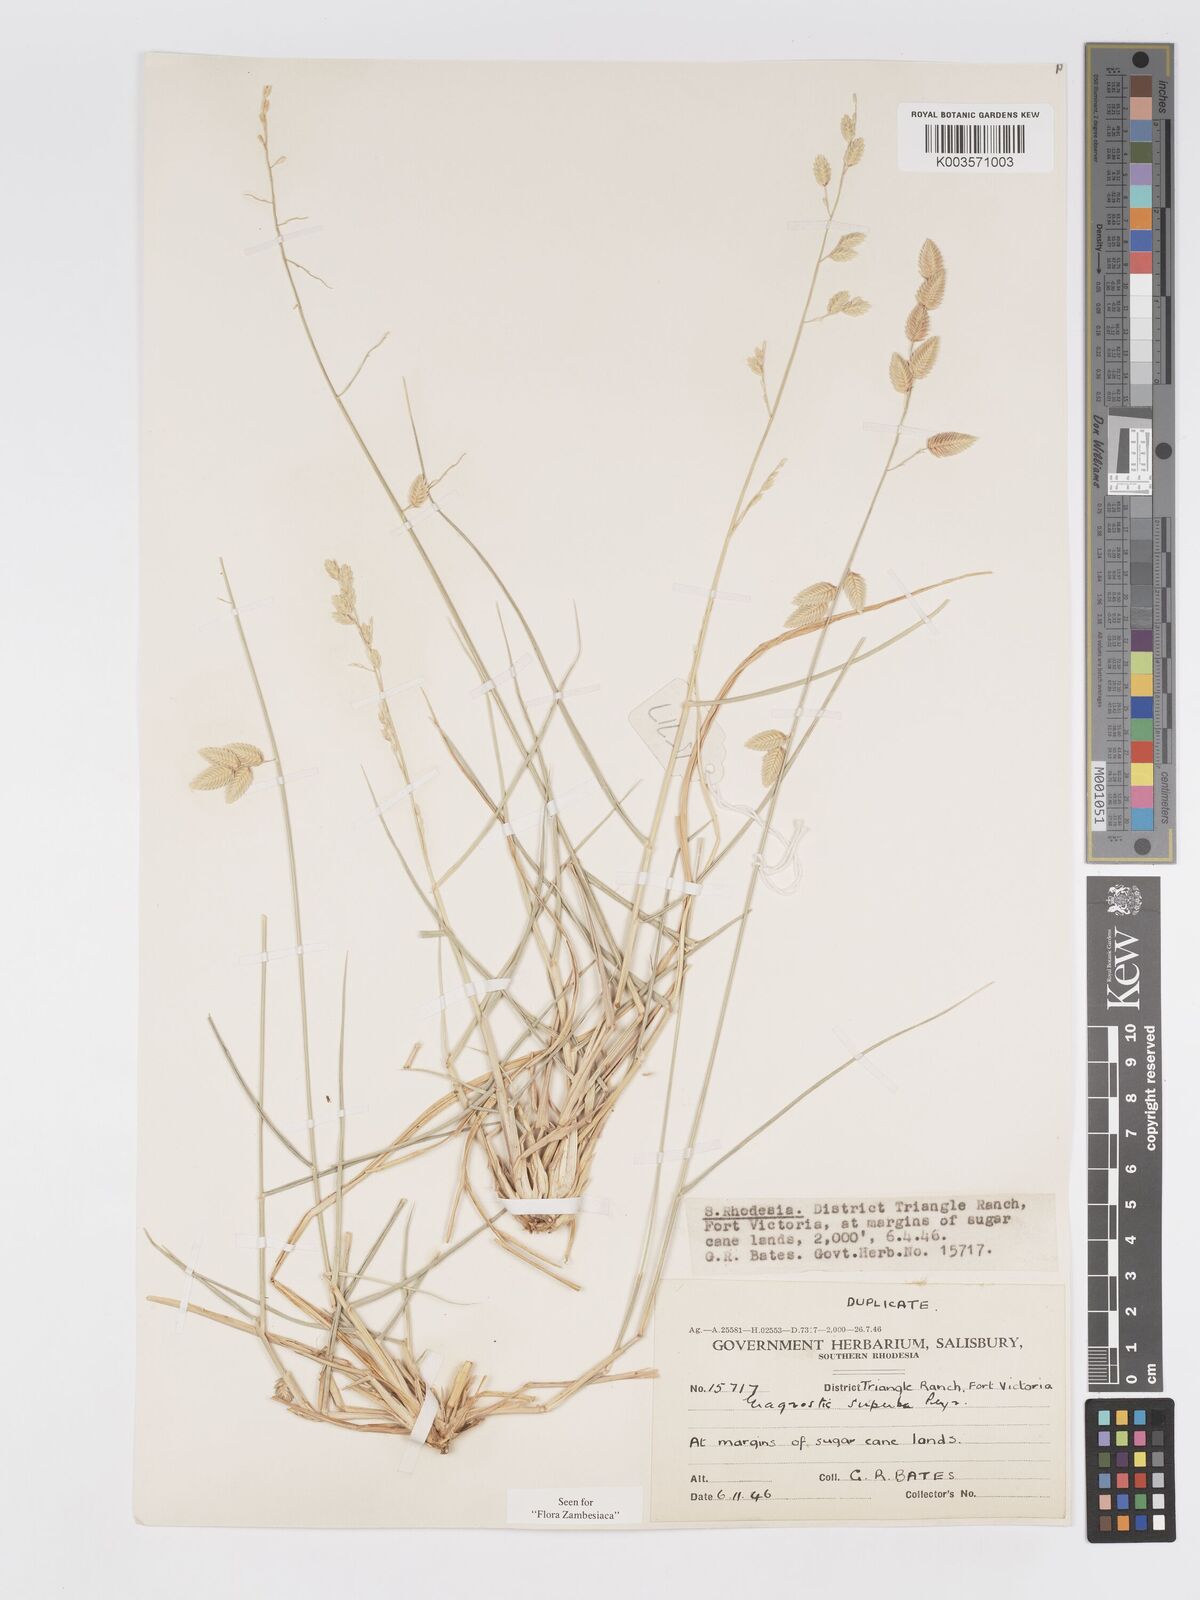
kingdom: Plantae
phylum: Tracheophyta
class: Liliopsida
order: Poales
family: Poaceae
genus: Eragrostis
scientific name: Eragrostis superba
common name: Wilman lovegrass
